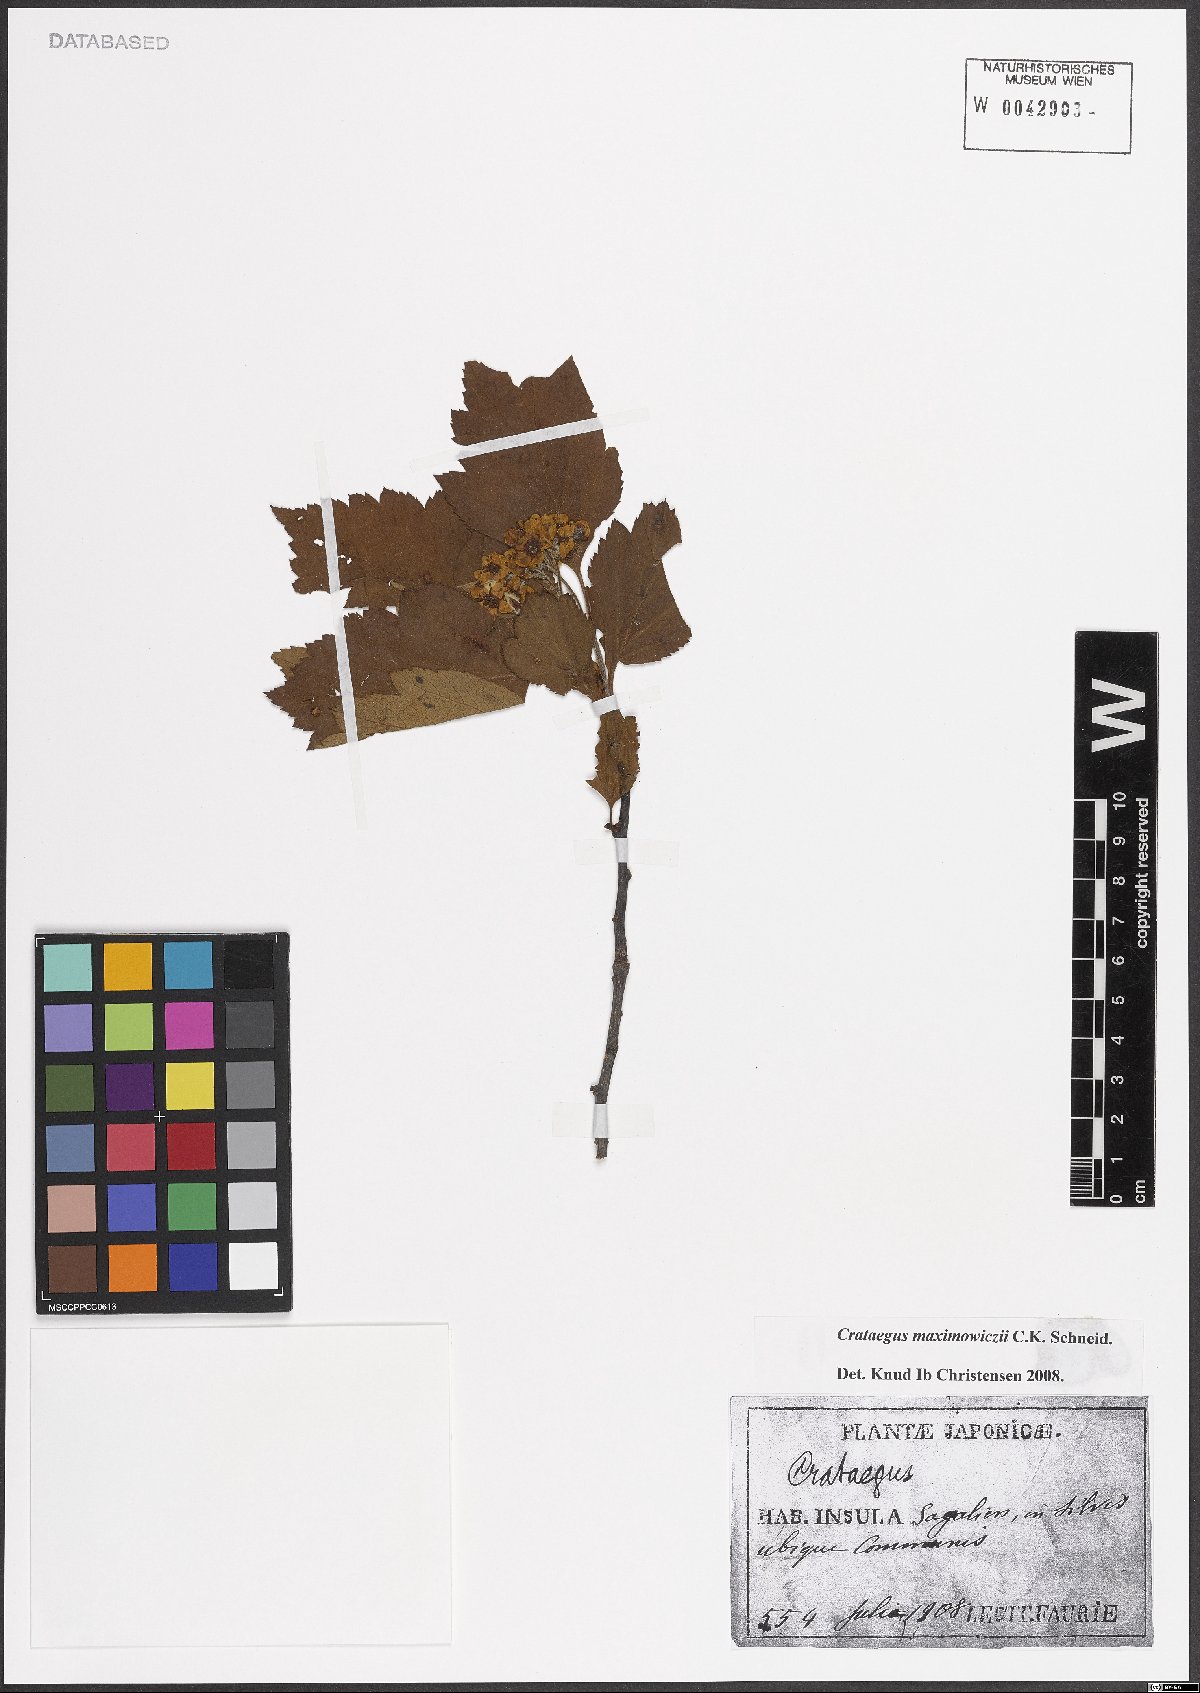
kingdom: Plantae
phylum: Tracheophyta
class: Magnoliopsida
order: Rosales
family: Rosaceae
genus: Crataegus
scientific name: Crataegus maximowiczii
